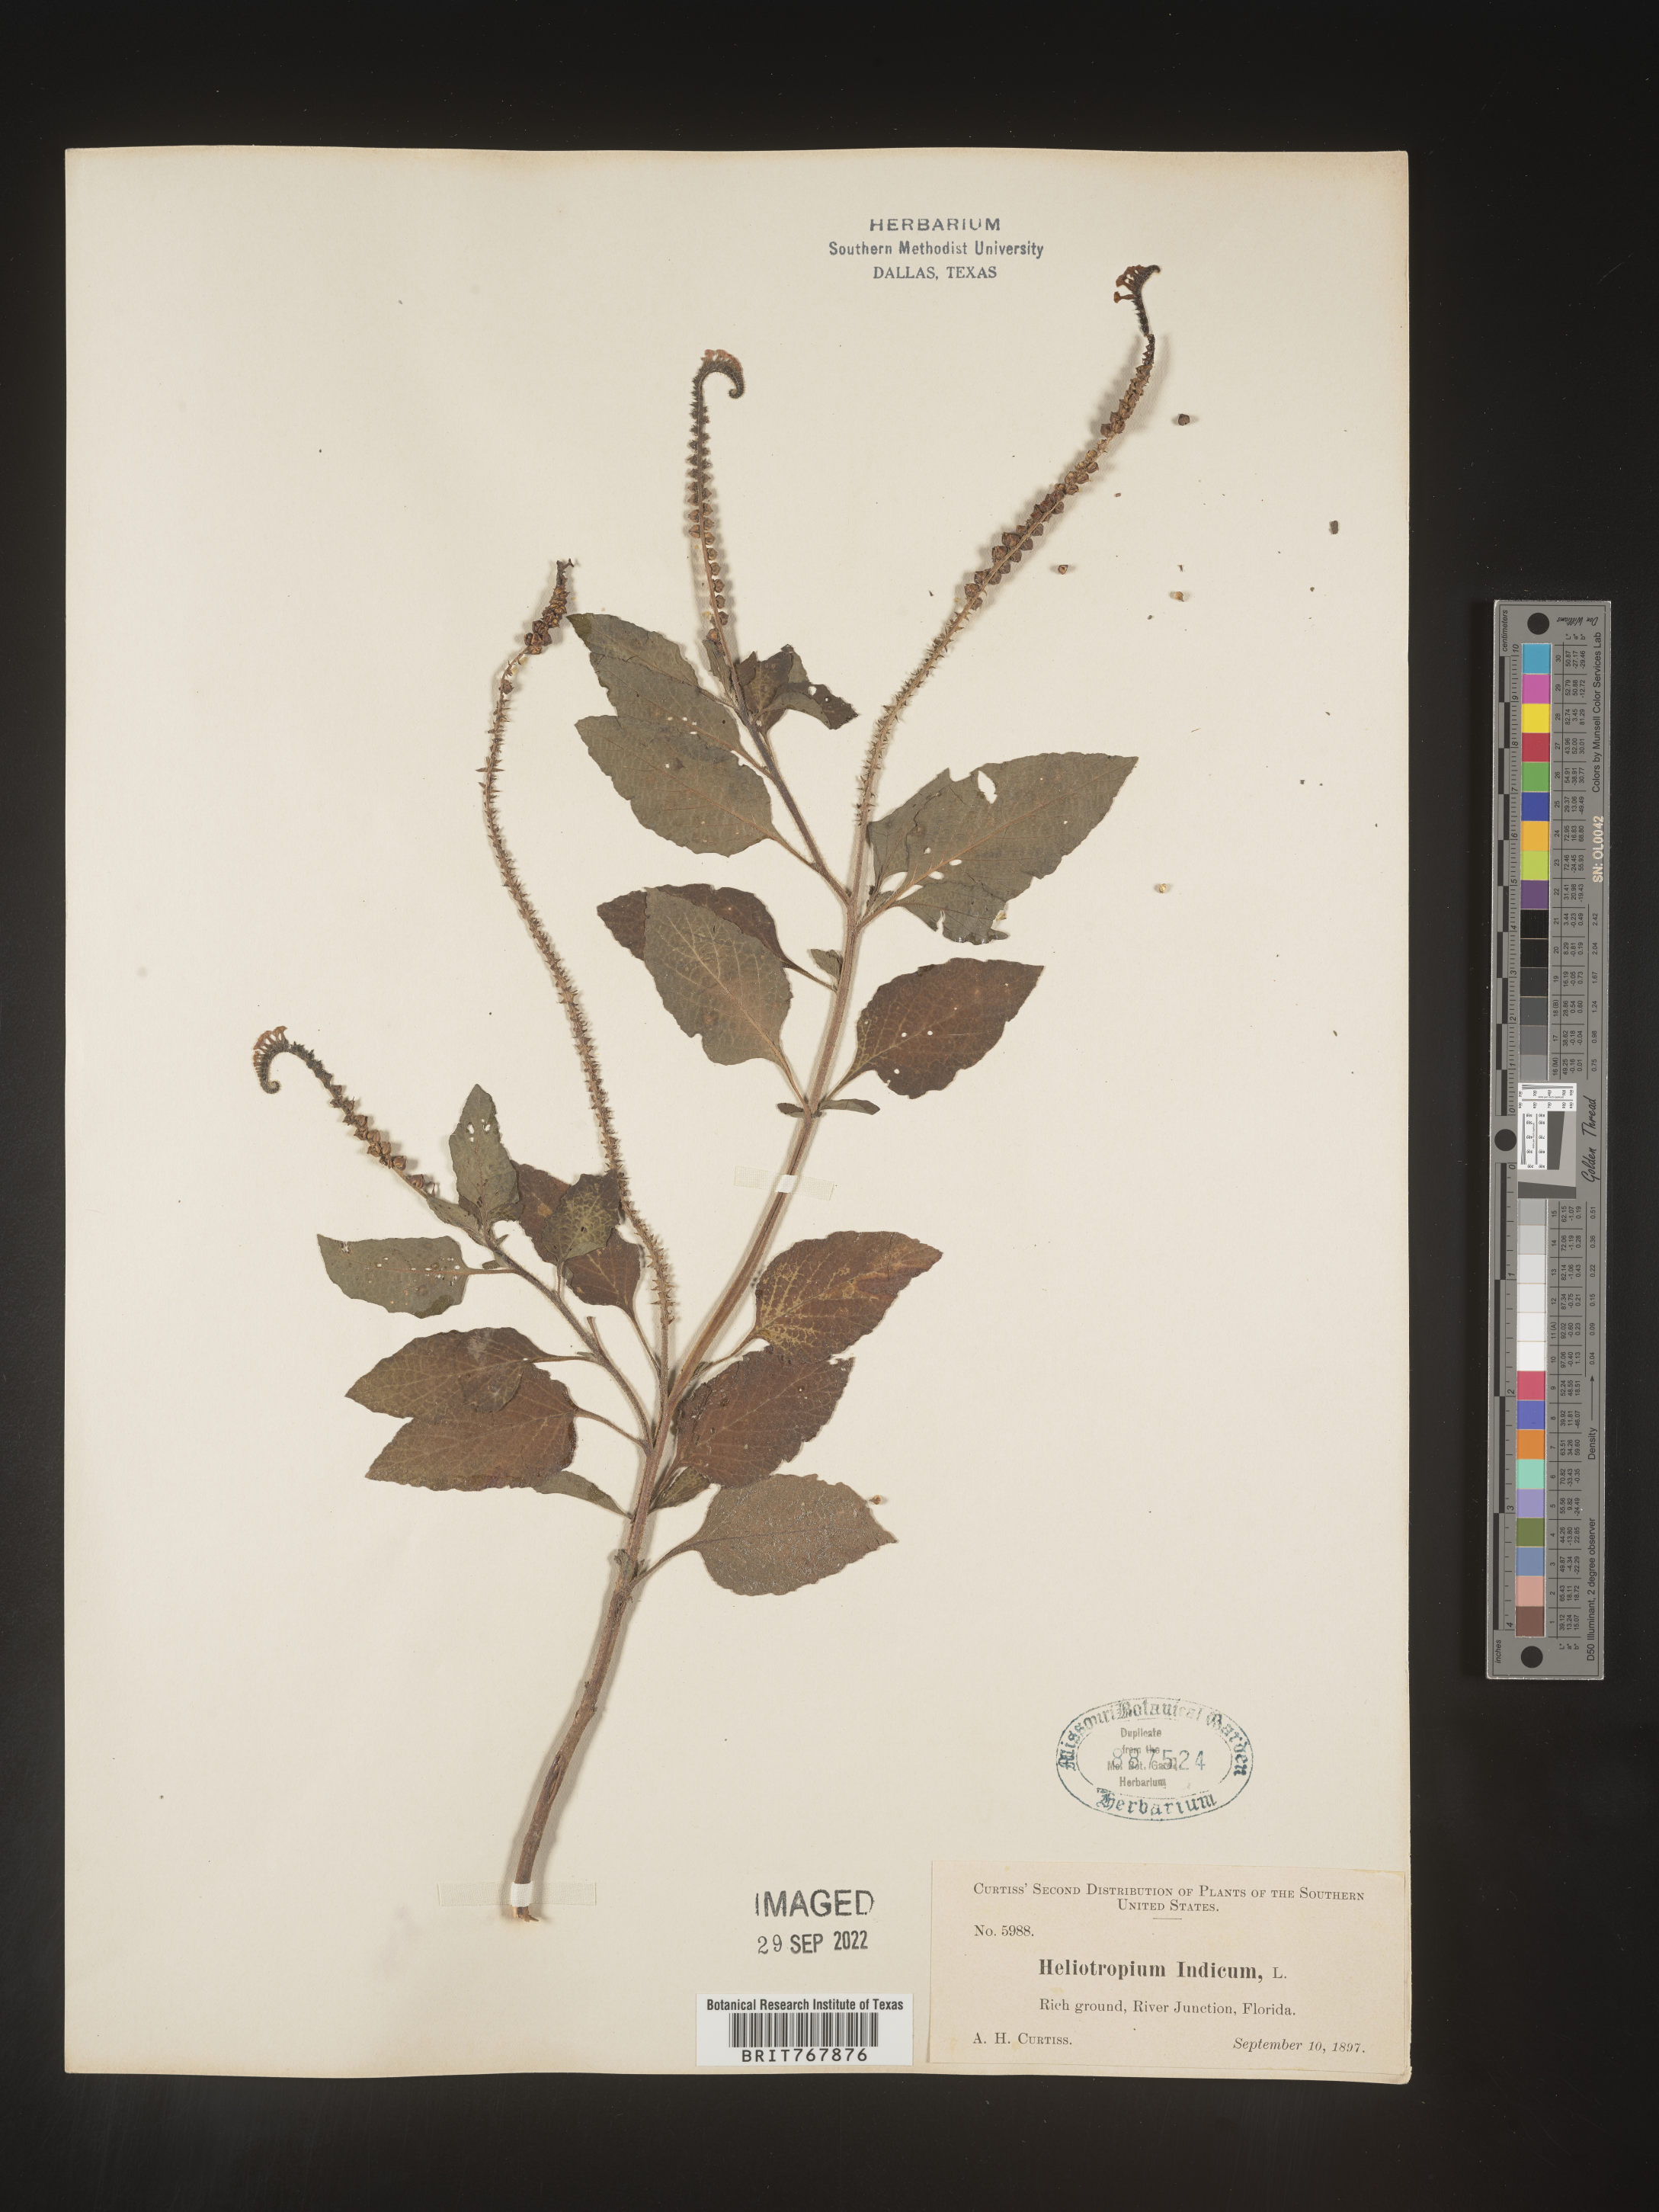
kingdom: Plantae
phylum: Tracheophyta
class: Magnoliopsida
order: Boraginales
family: Heliotropiaceae
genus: Heliotropium
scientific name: Heliotropium indicum
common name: Indian heliotrope
